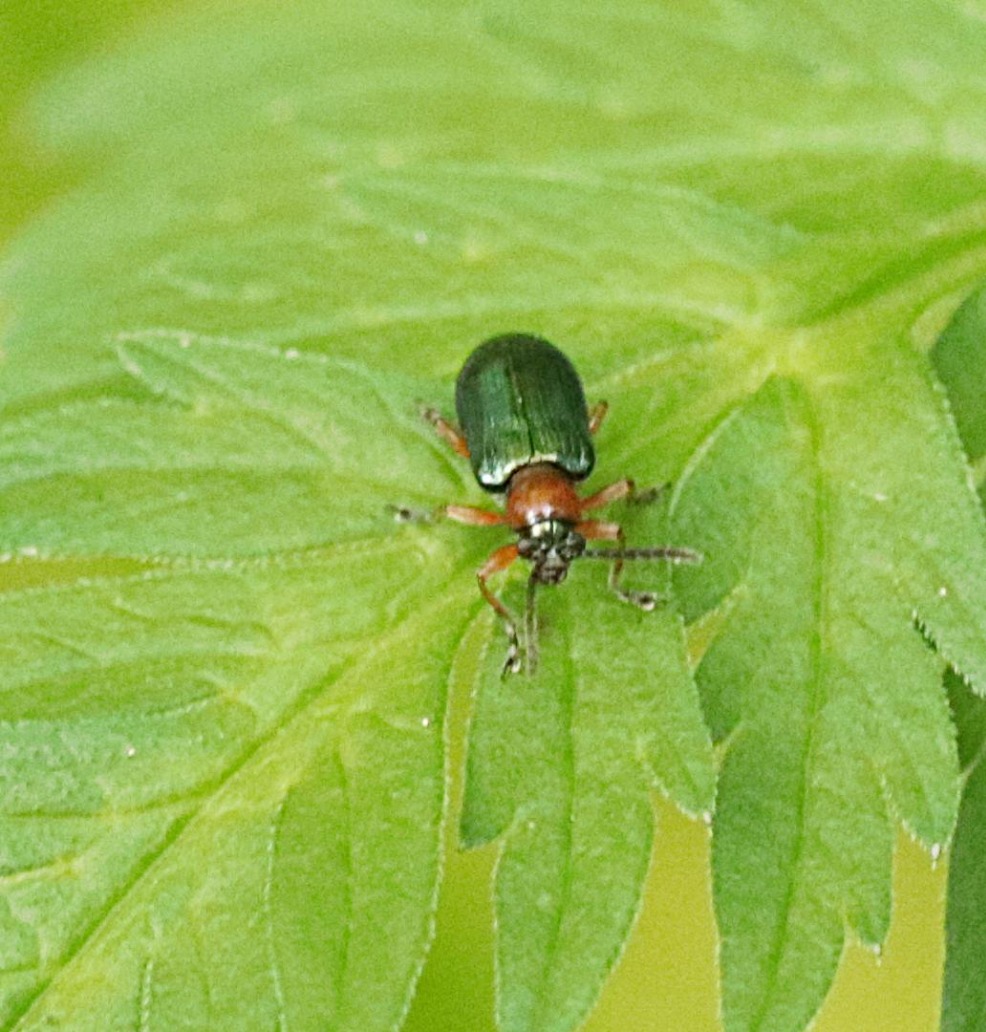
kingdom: Animalia
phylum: Arthropoda
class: Insecta
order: Coleoptera
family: Chrysomelidae
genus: Oulema
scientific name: Oulema
